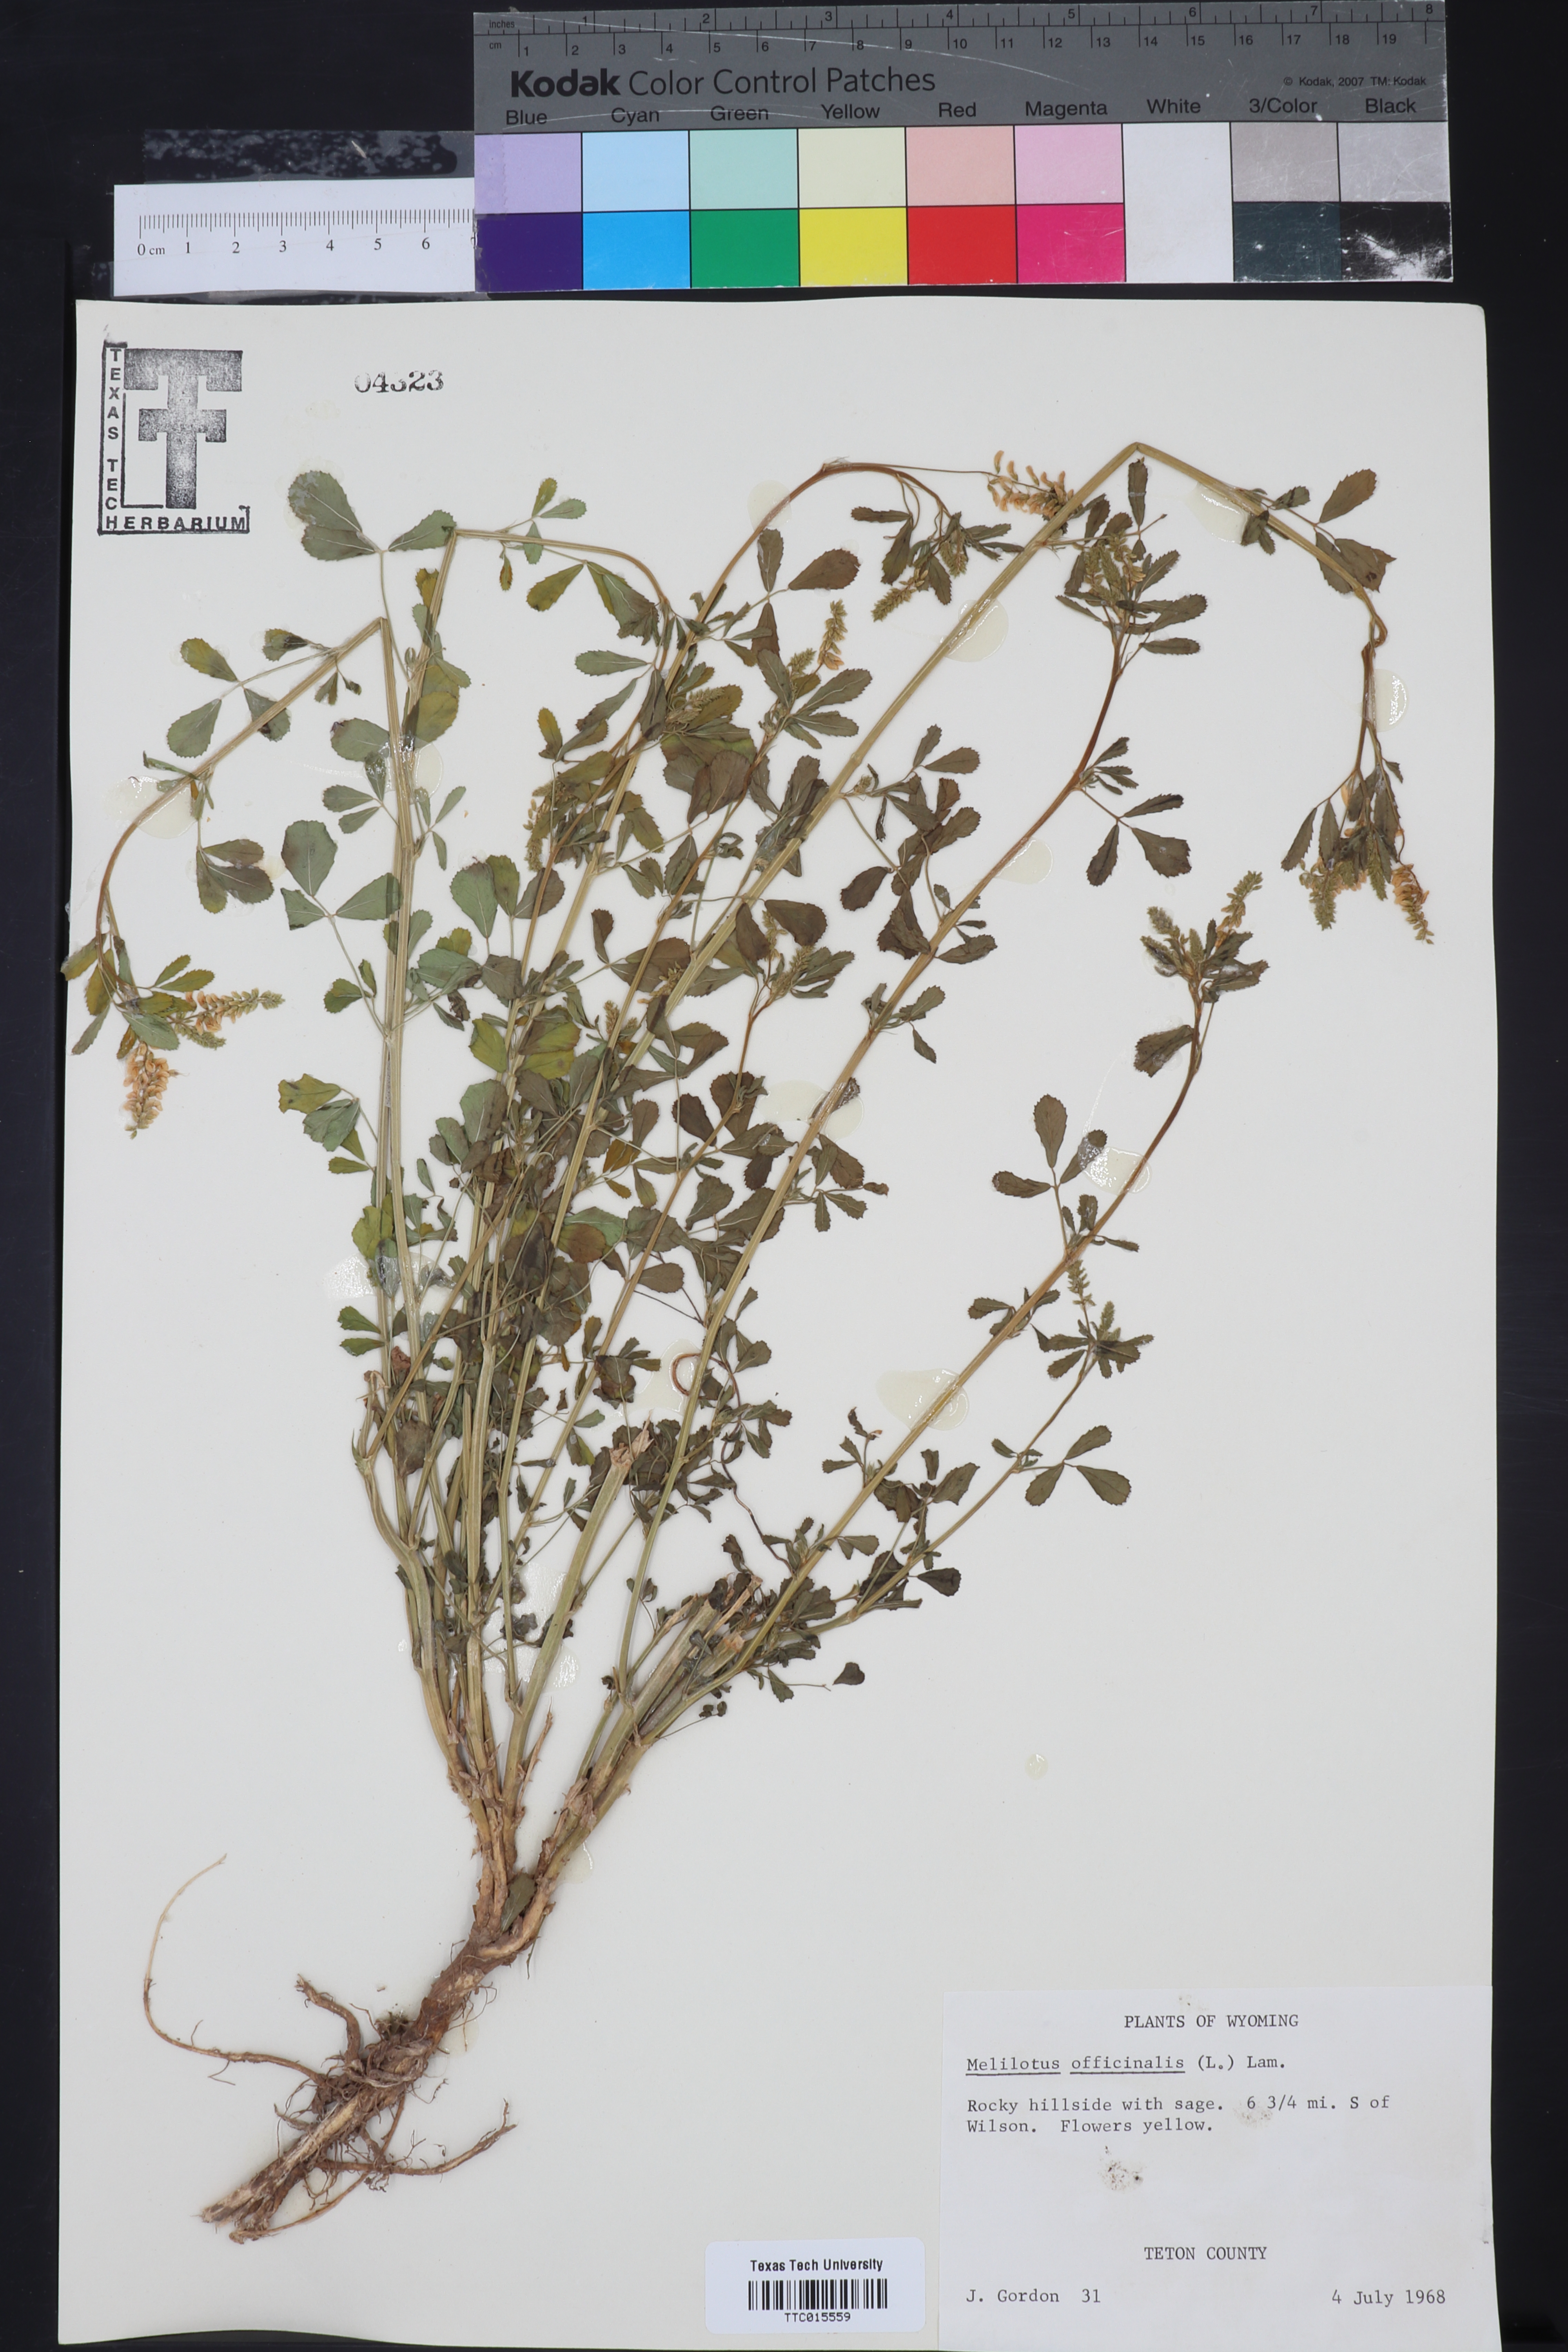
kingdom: Plantae
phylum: Tracheophyta
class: Magnoliopsida
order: Fabales
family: Fabaceae
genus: Melilotus
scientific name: Melilotus officinalis
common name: Sweetclover
